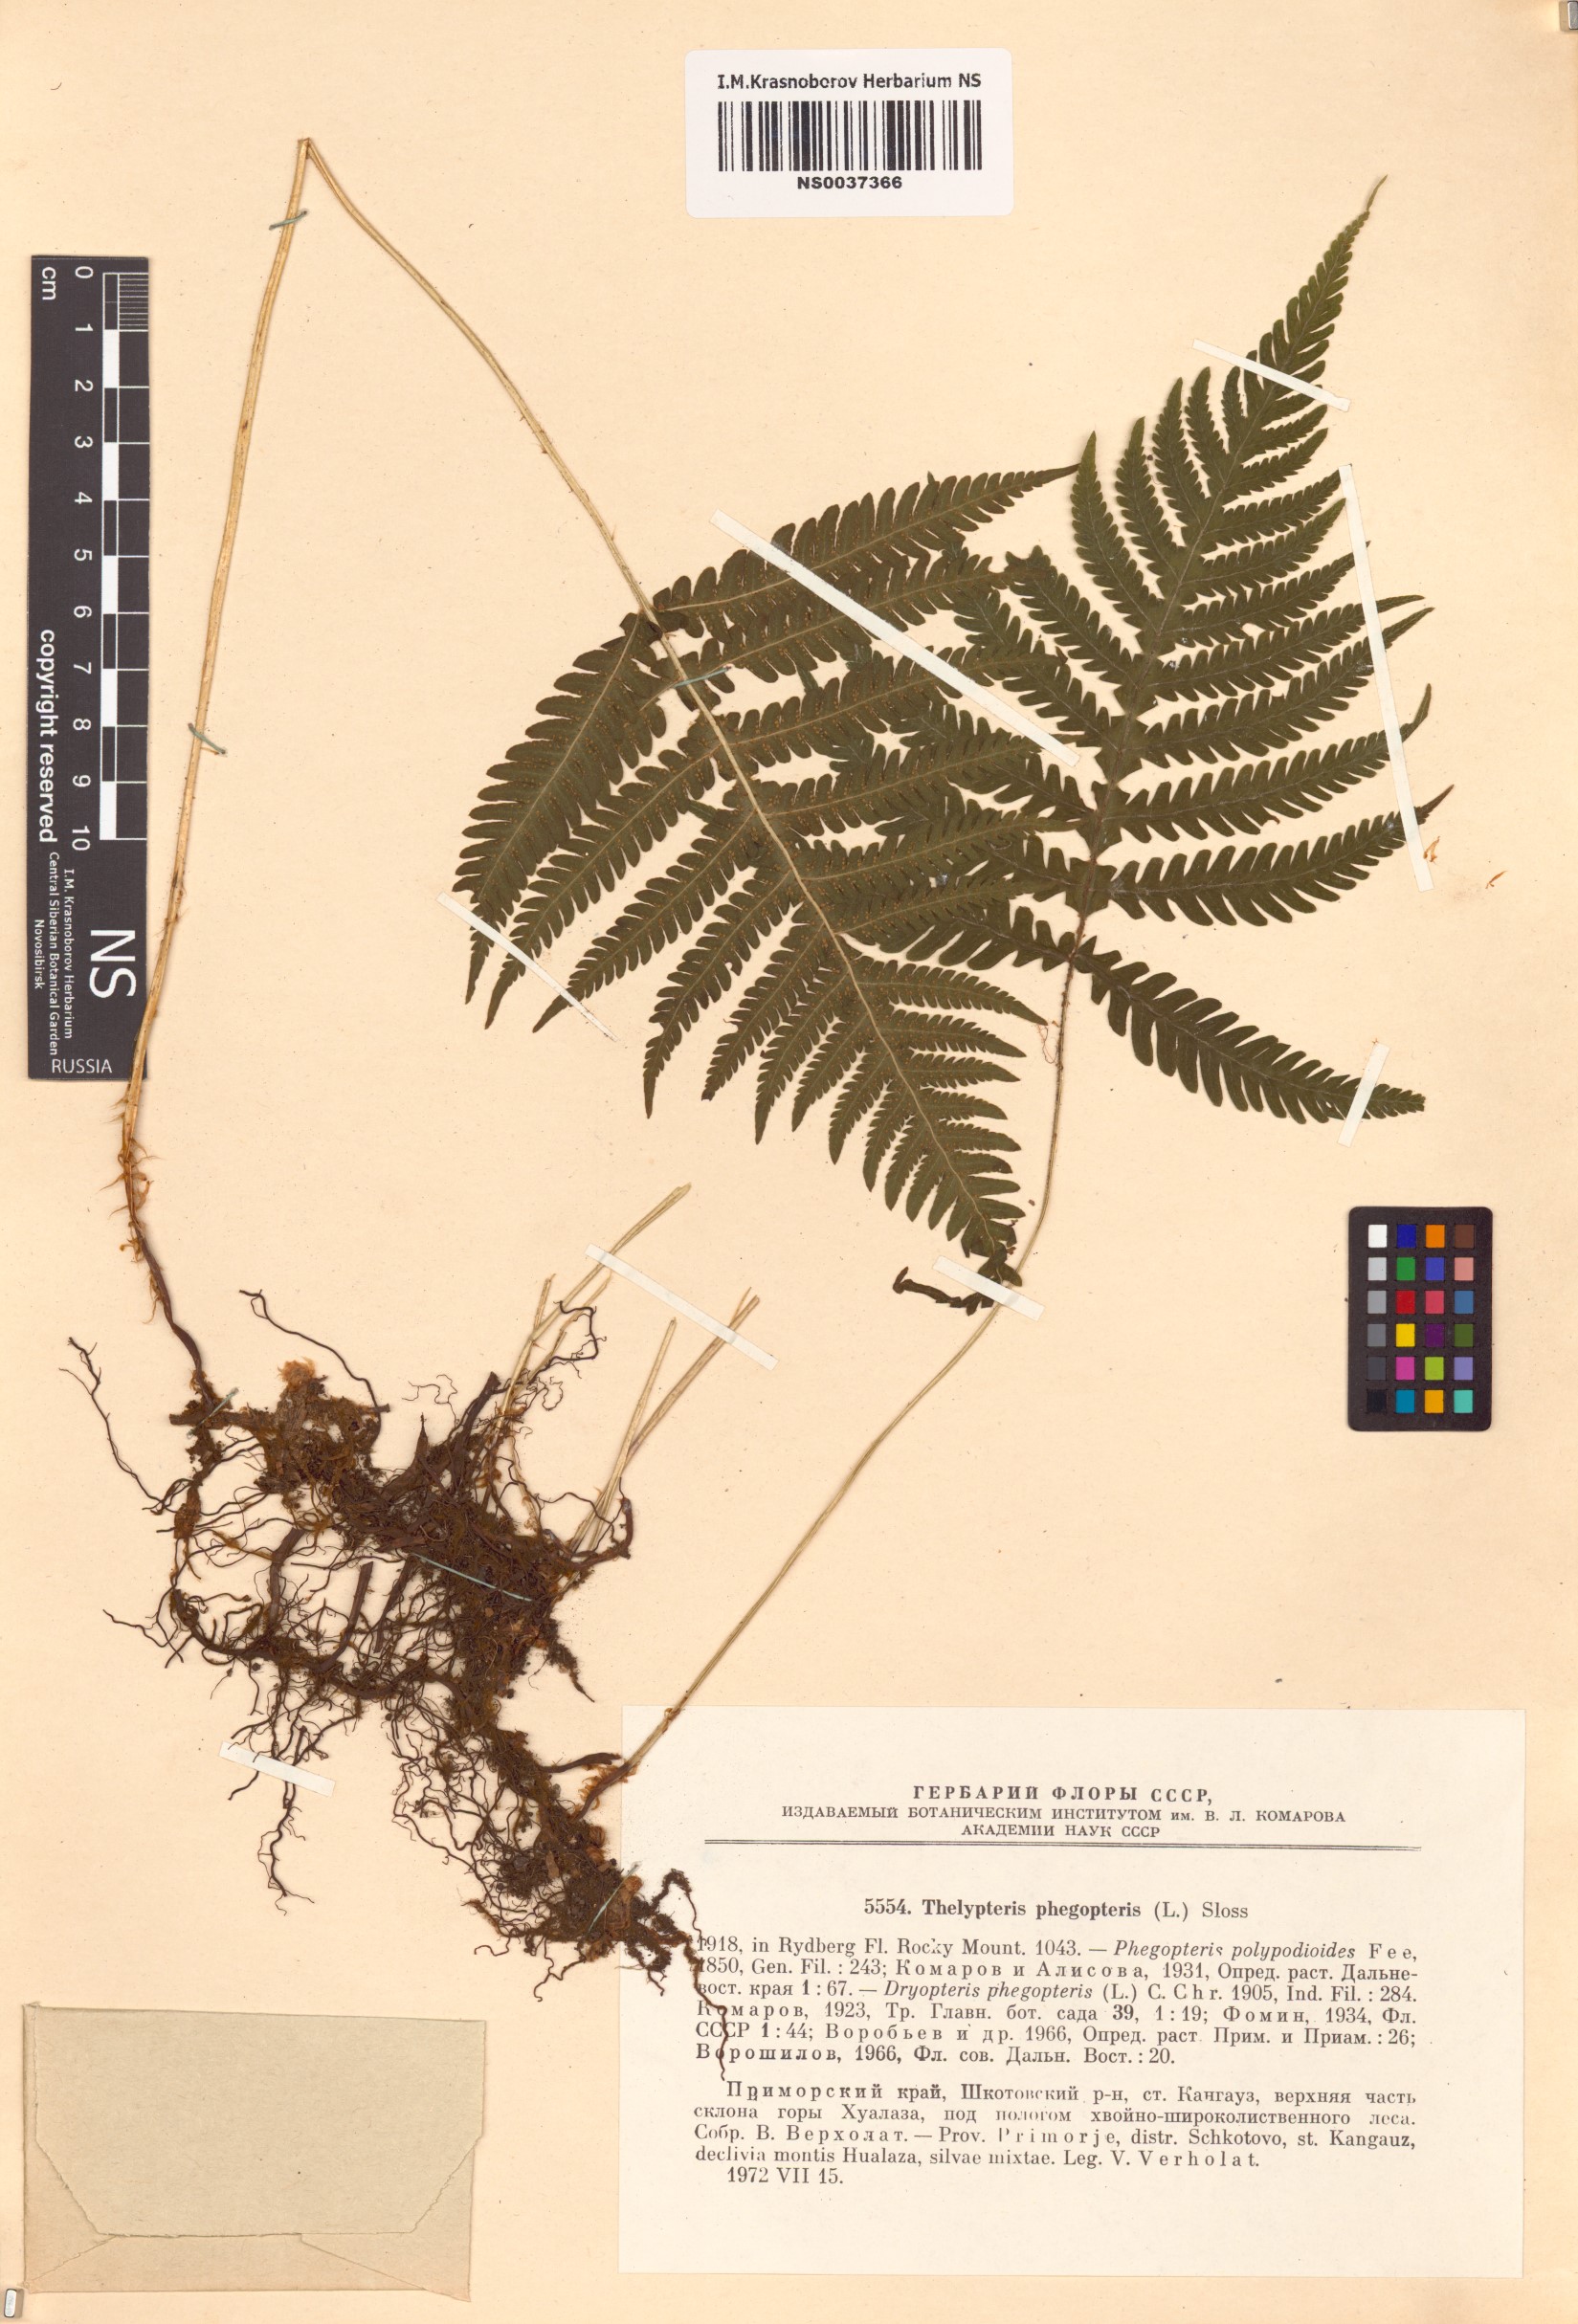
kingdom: Plantae
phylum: Tracheophyta
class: Polypodiopsida
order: Polypodiales
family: Thelypteridaceae
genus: Phegopteris
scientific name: Phegopteris connectilis
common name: Beech fern
